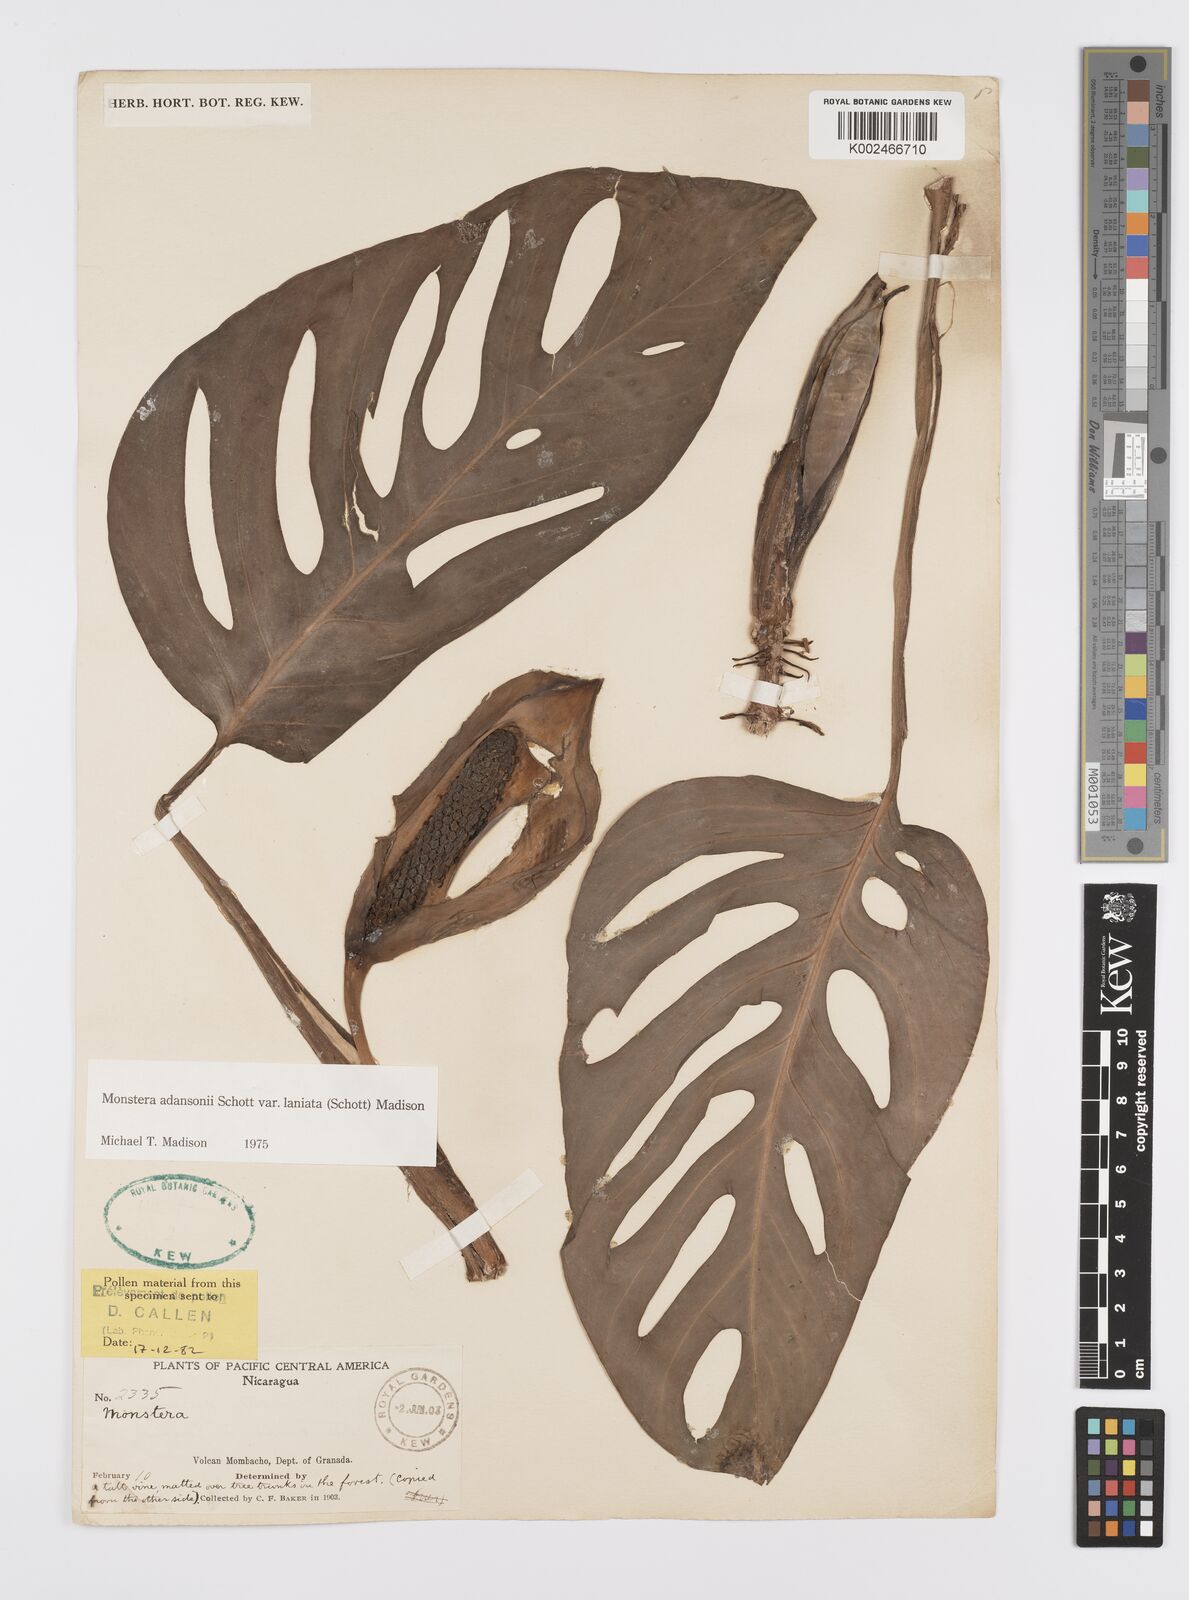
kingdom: Plantae
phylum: Tracheophyta
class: Liliopsida
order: Alismatales
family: Araceae
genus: Monstera
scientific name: Monstera adansonii
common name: Tarovine
